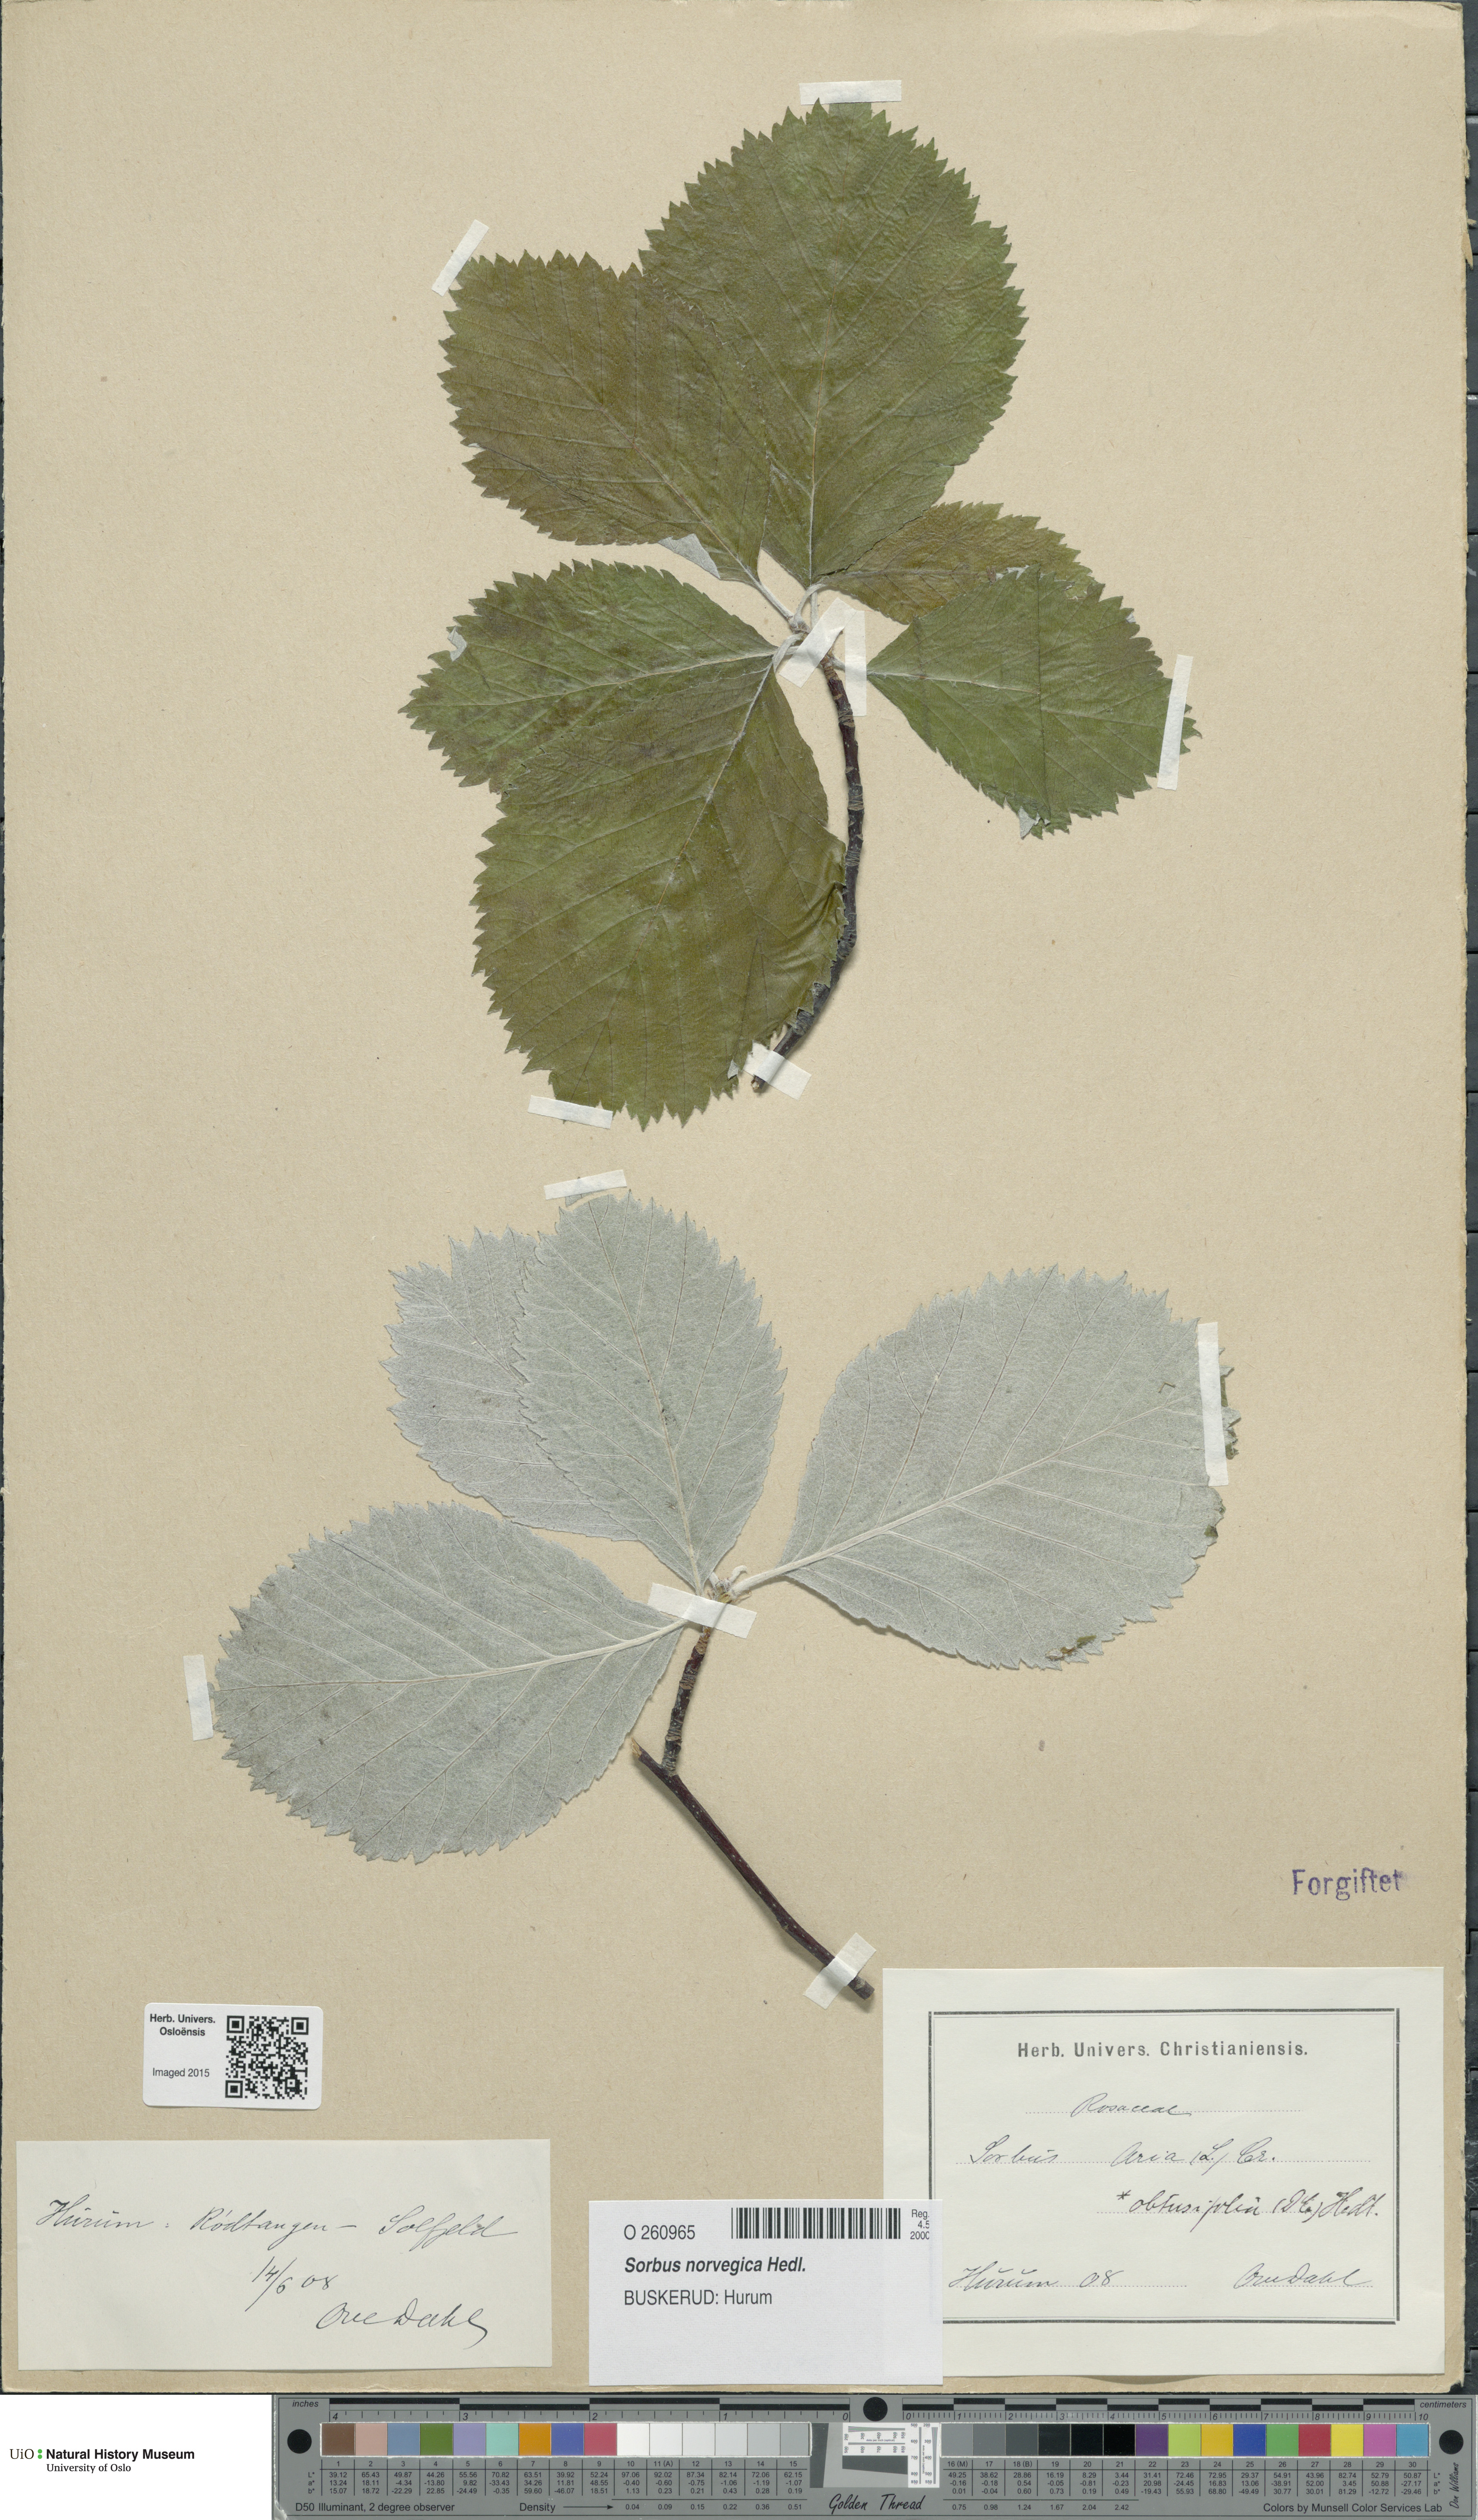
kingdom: Plantae
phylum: Tracheophyta
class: Magnoliopsida
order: Rosales
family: Rosaceae
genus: Aria
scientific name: Aria obtusifolia
